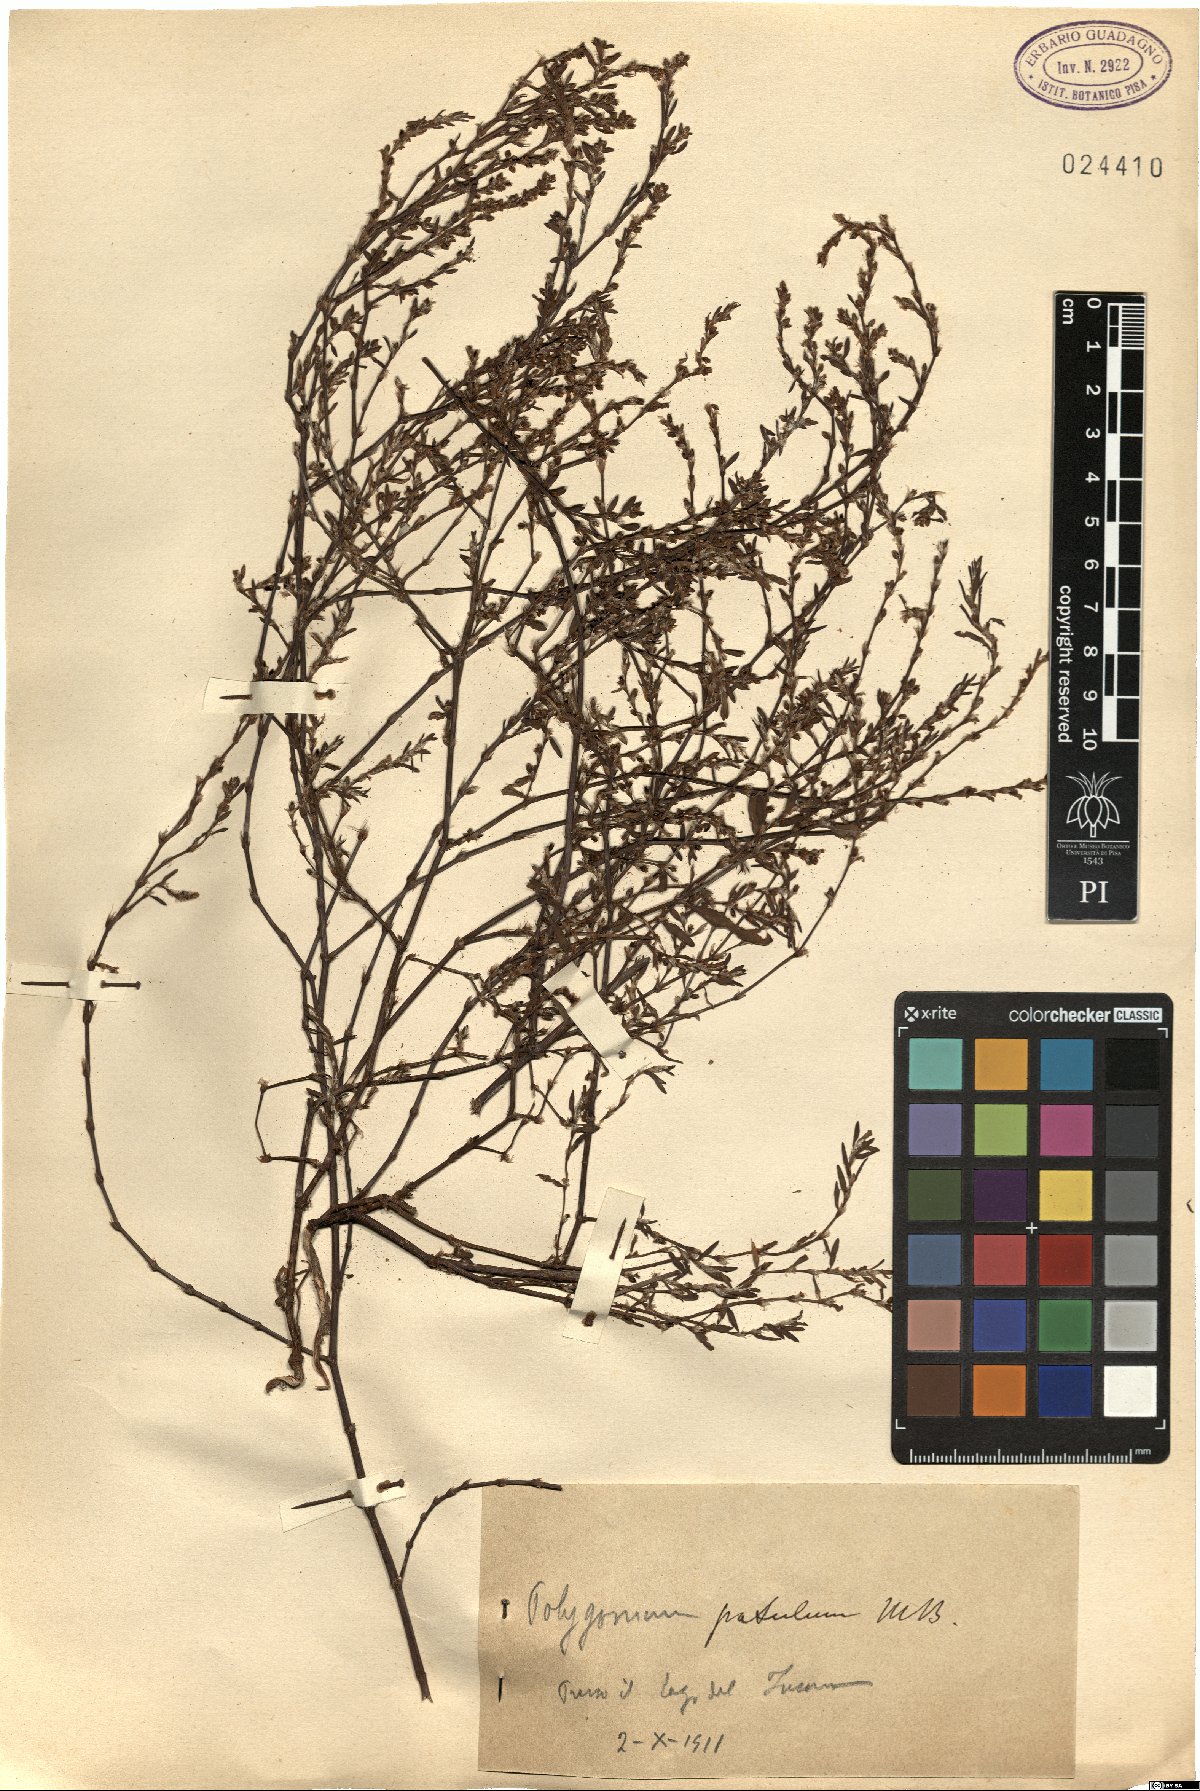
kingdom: Plantae
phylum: Tracheophyta
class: Magnoliopsida
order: Caryophyllales
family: Polygonaceae
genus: Polygonum
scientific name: Polygonum patulum
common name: Red-knotgrass
